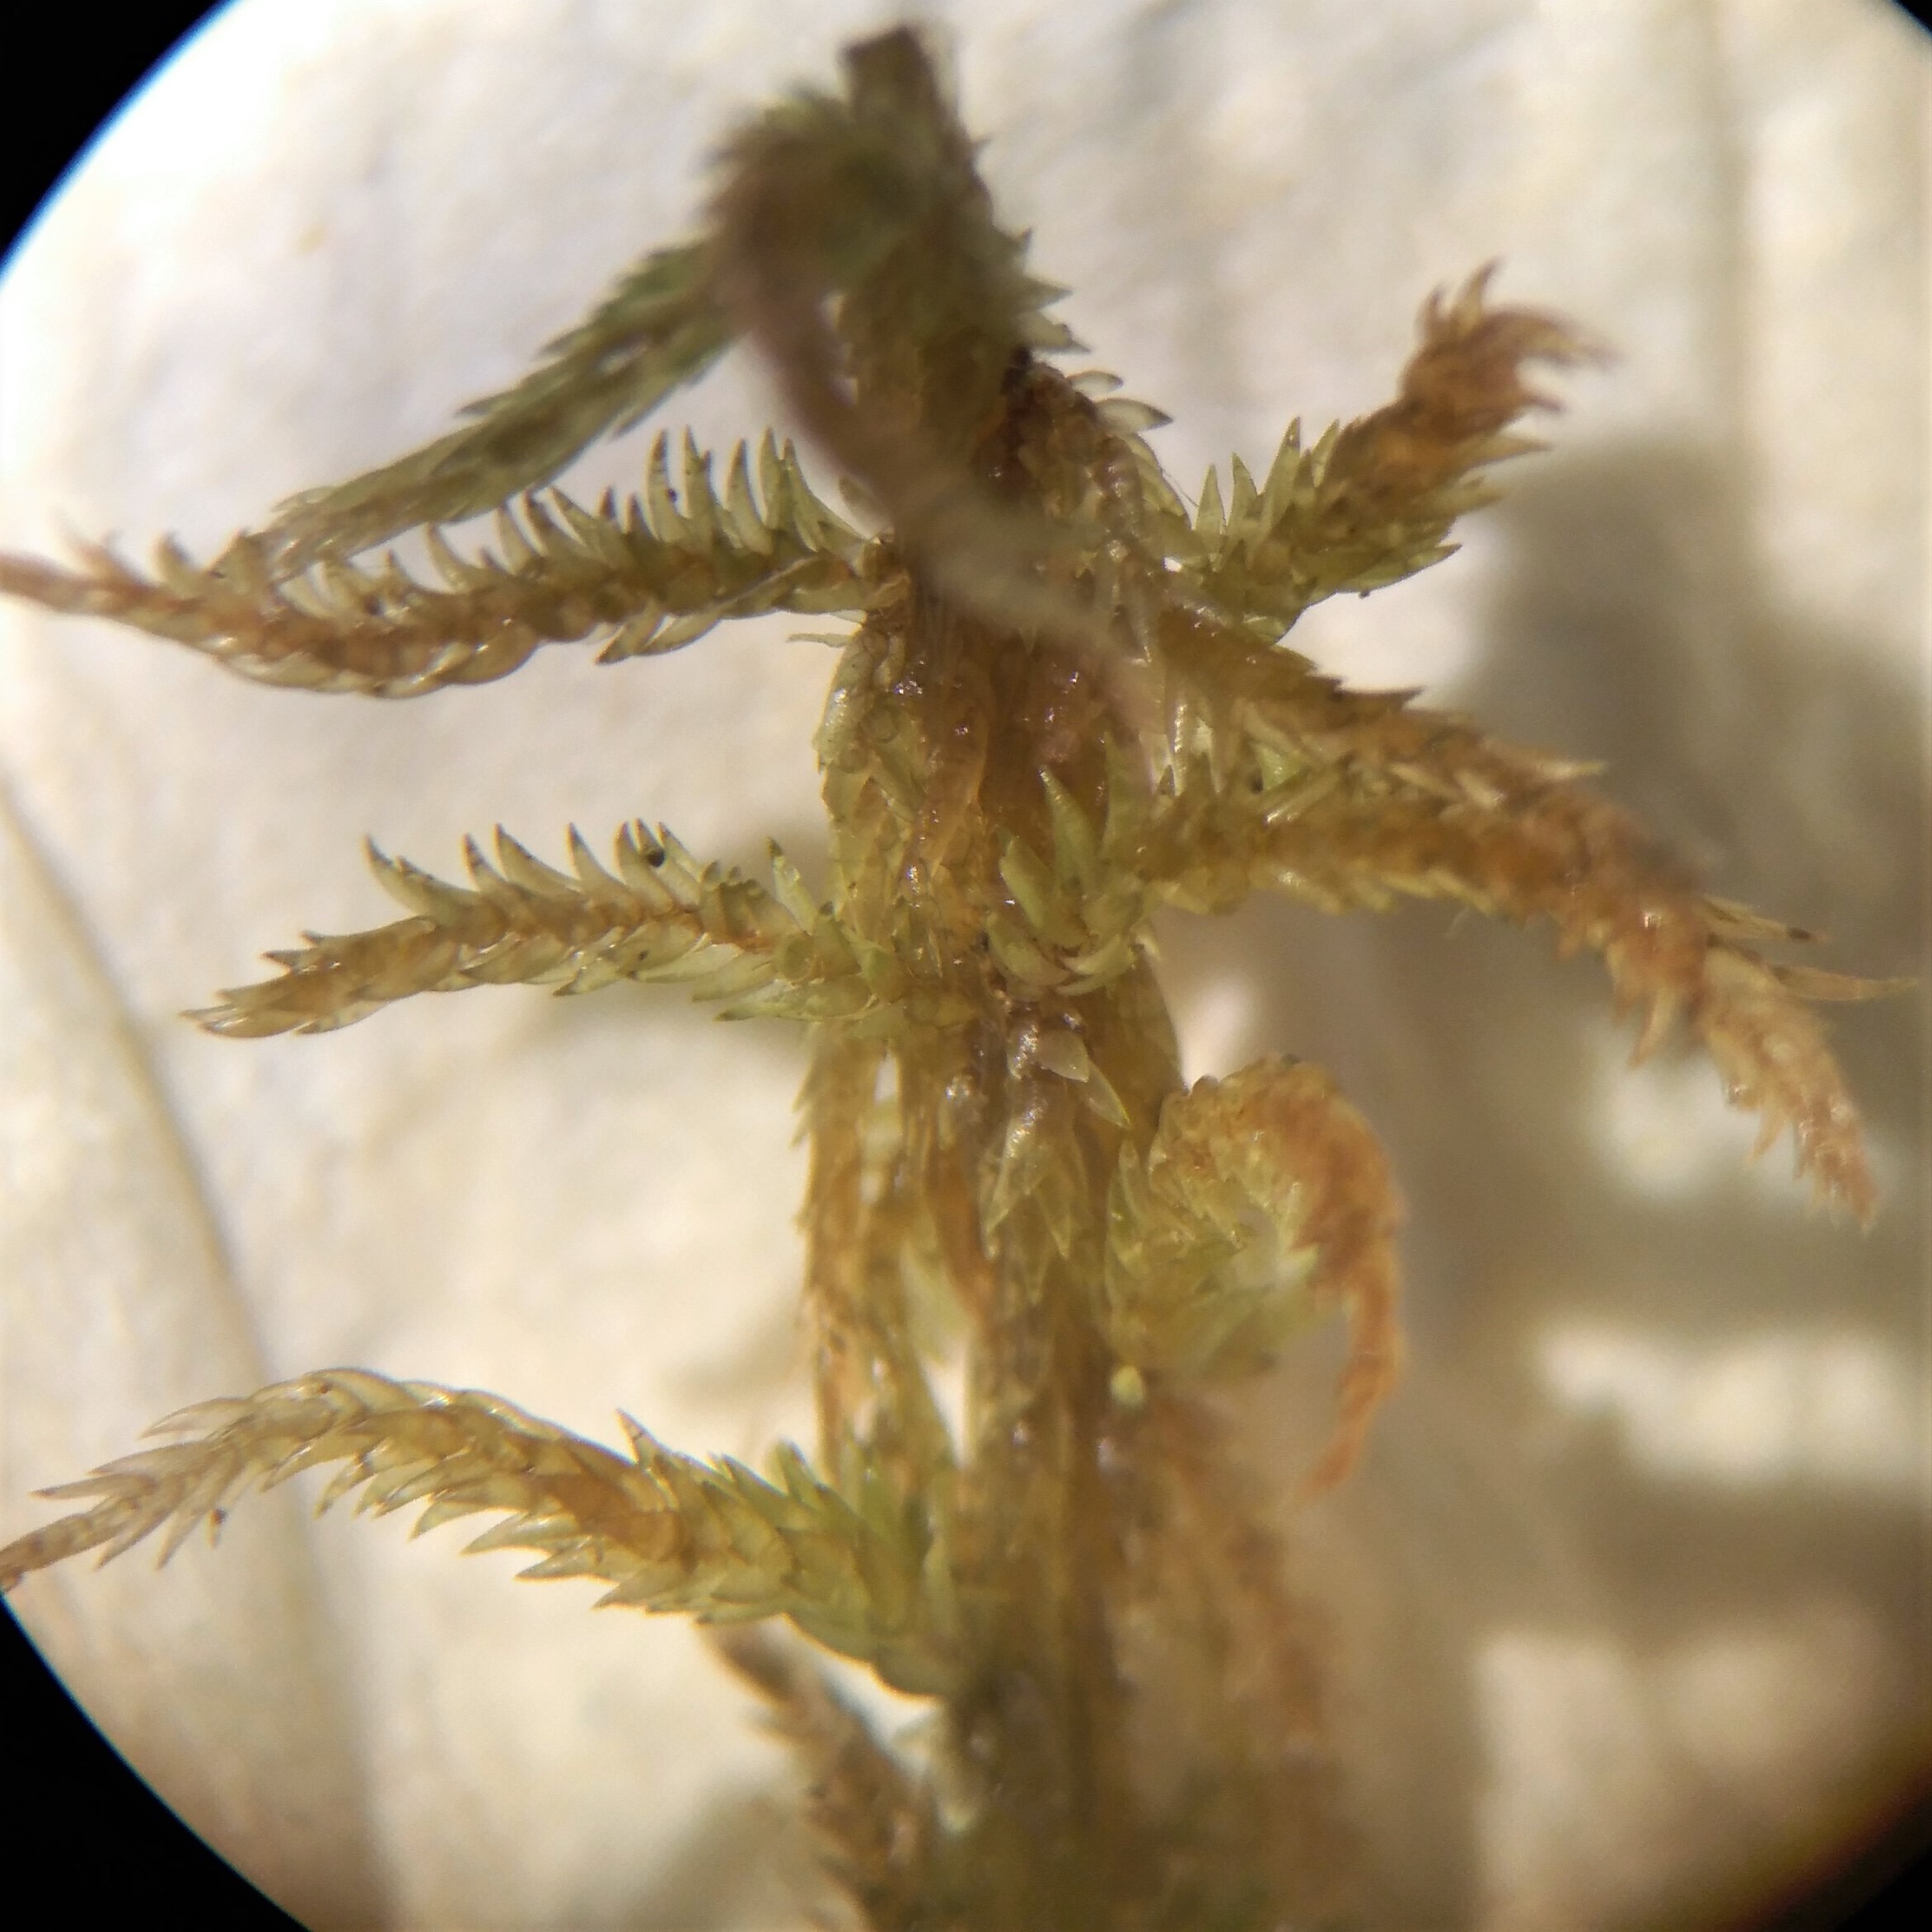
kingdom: Plantae
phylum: Bryophyta
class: Sphagnopsida
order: Sphagnales
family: Sphagnaceae
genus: Sphagnum
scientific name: Sphagnum contortum
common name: Krumbladet tørvemos
